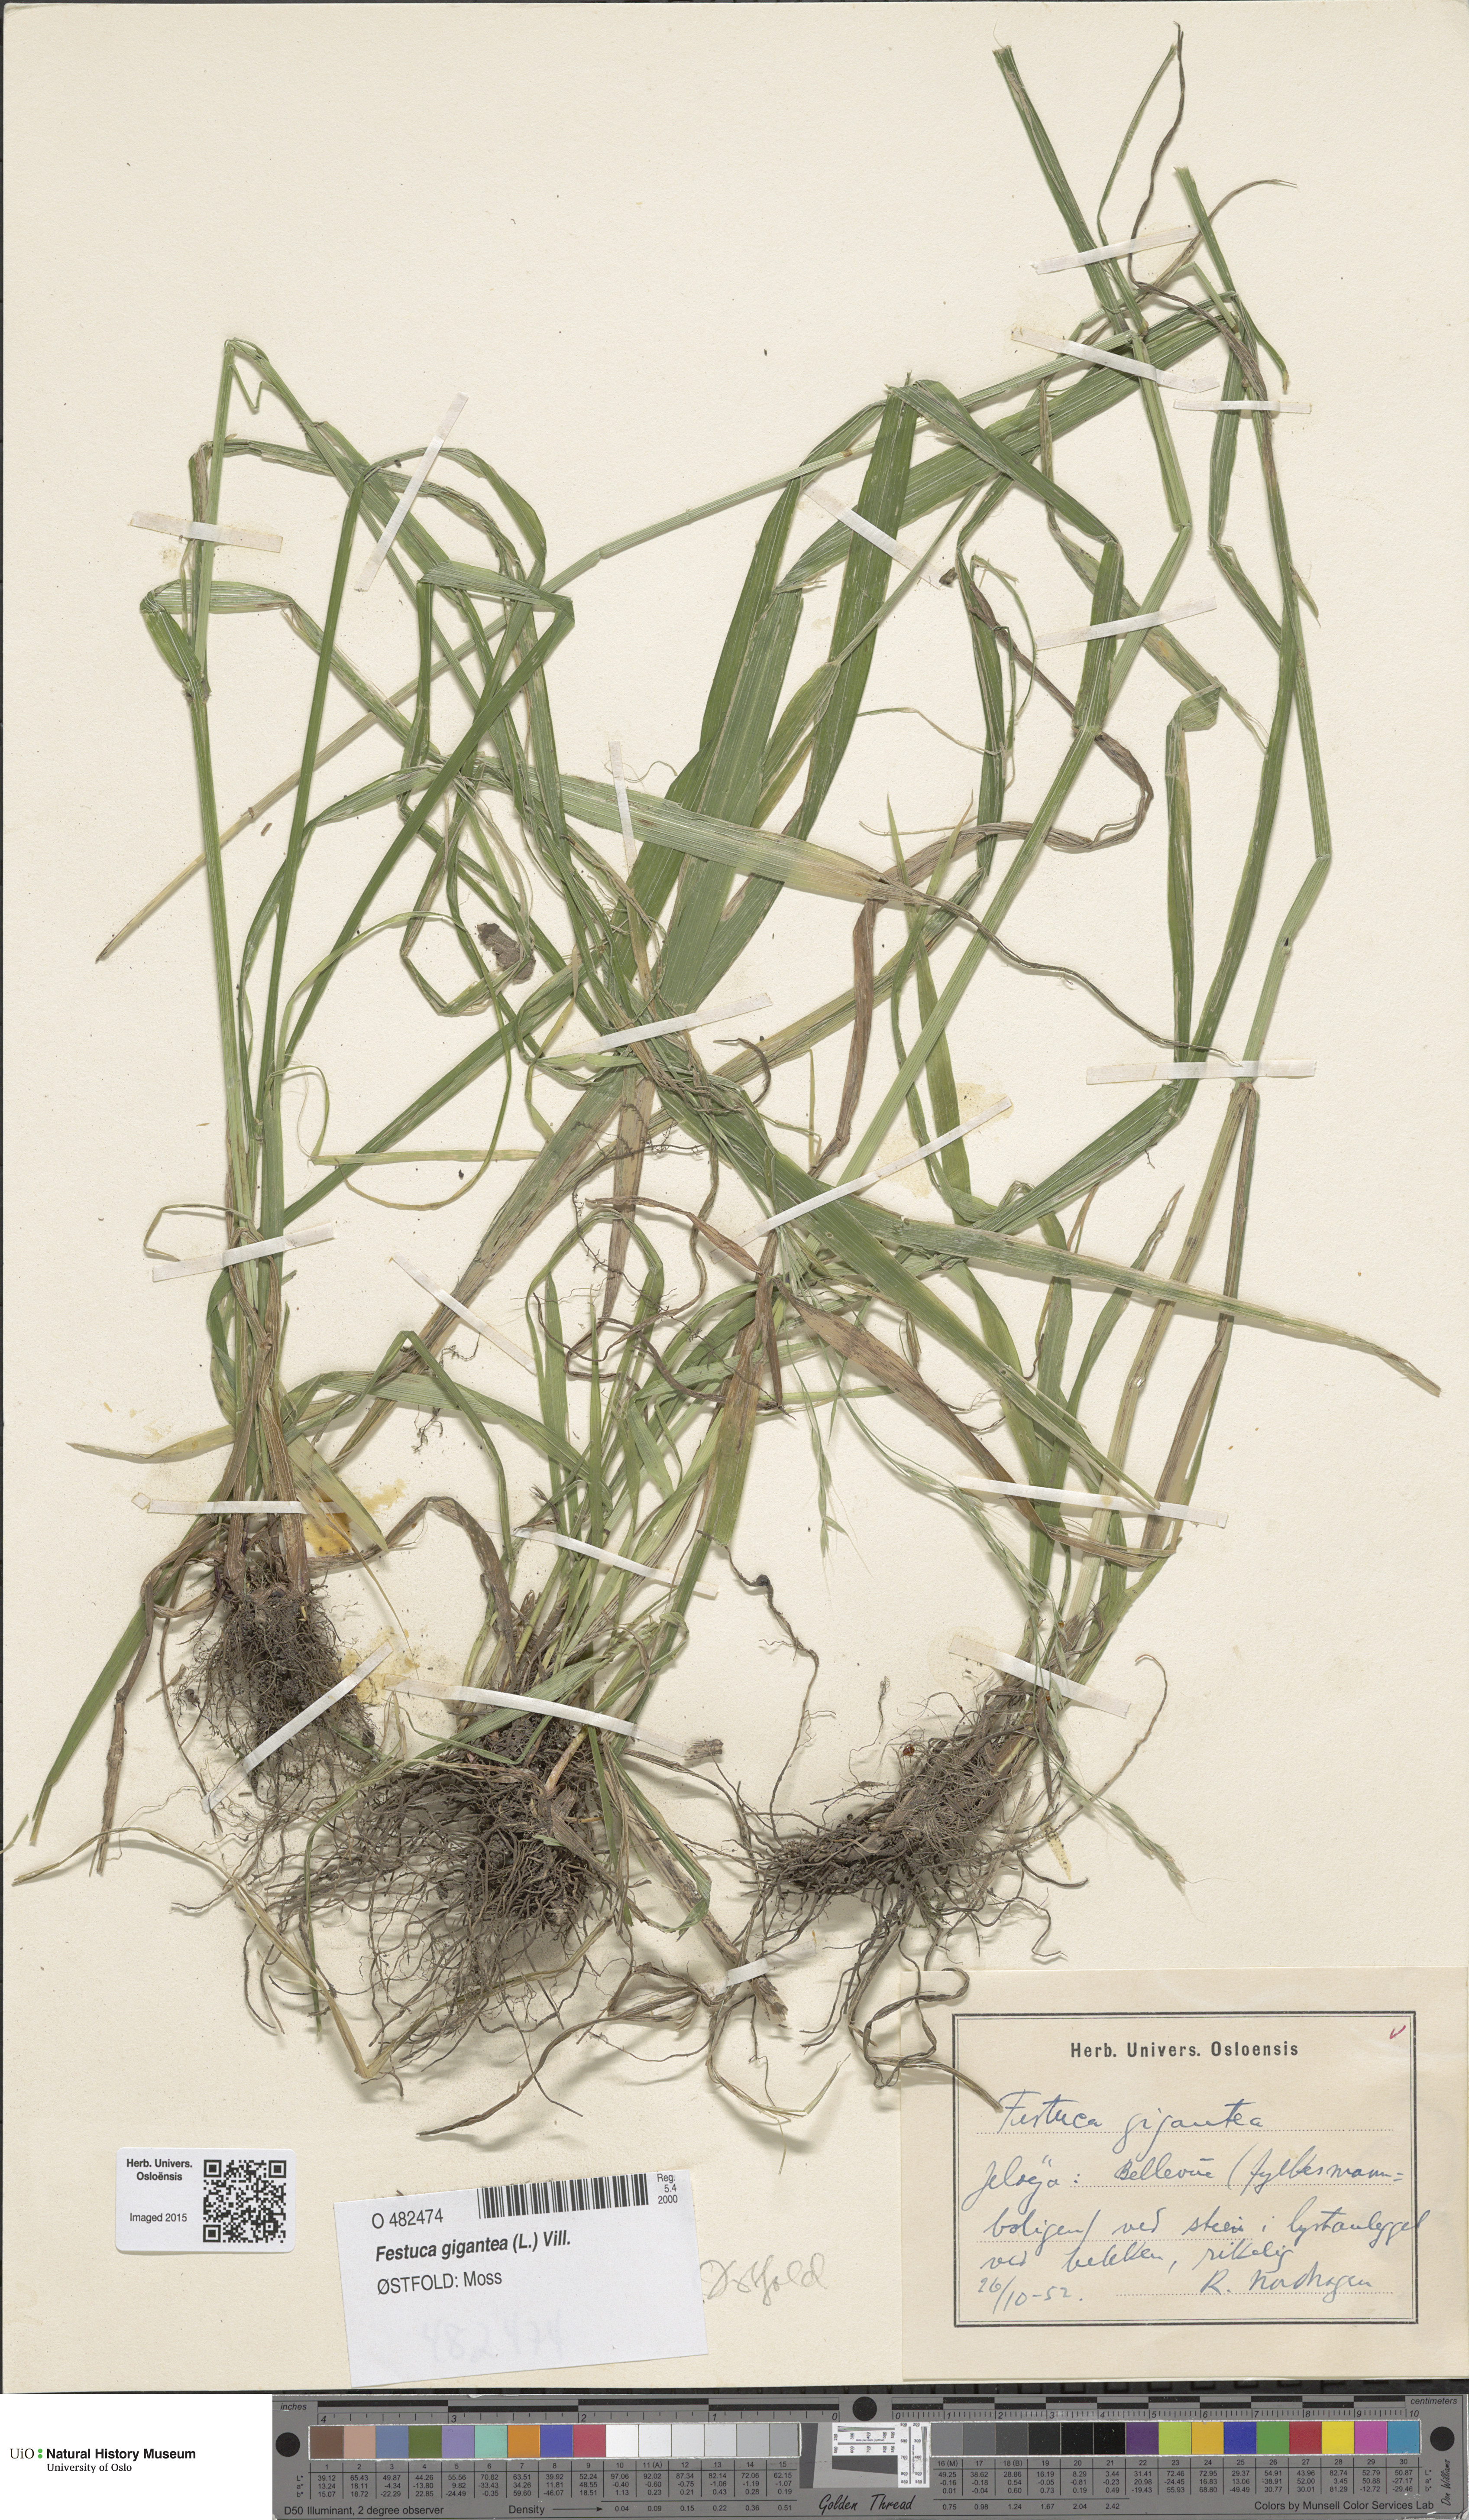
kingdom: Plantae
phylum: Tracheophyta
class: Liliopsida
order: Poales
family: Poaceae
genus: Lolium
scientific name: Lolium giganteum
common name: Giant fescue
